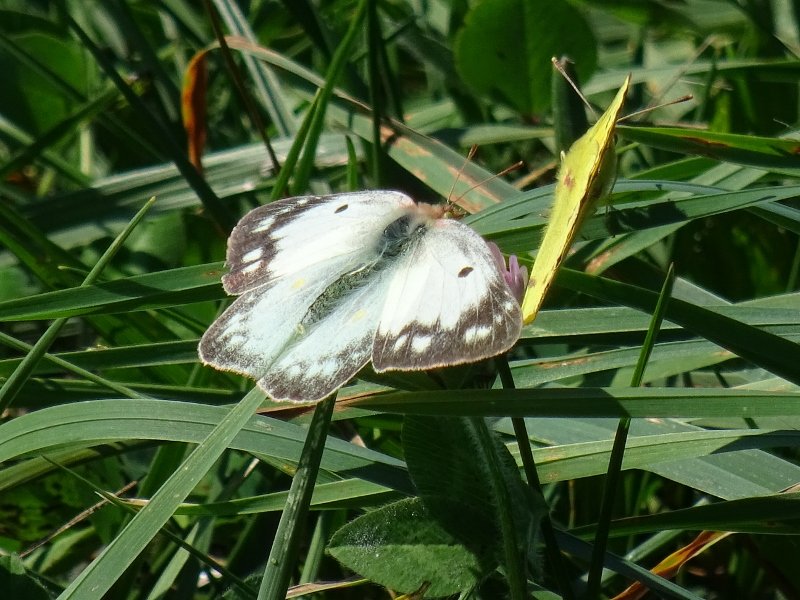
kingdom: Animalia
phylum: Arthropoda
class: Insecta
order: Lepidoptera
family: Pieridae
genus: Colias
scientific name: Colias
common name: Clouded Yellows
